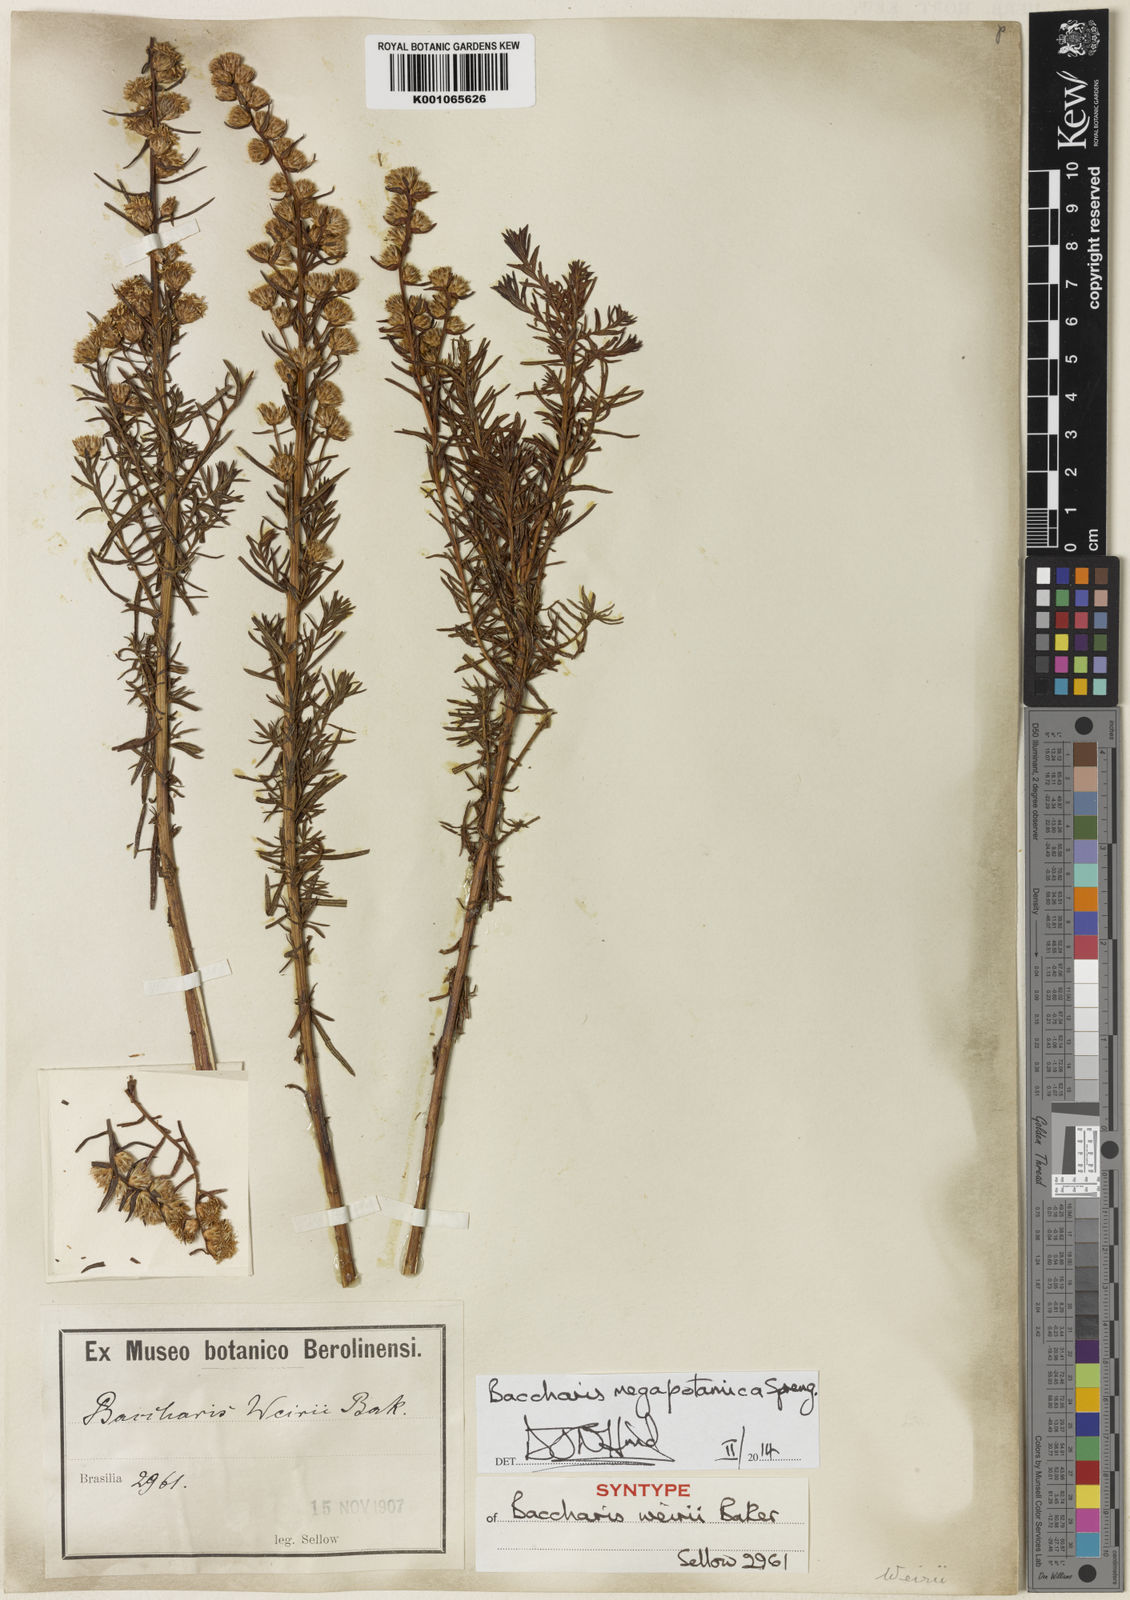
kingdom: Plantae
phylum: Tracheophyta
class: Magnoliopsida
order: Asterales
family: Asteraceae
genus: Baccharis
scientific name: Baccharis megapotamica
